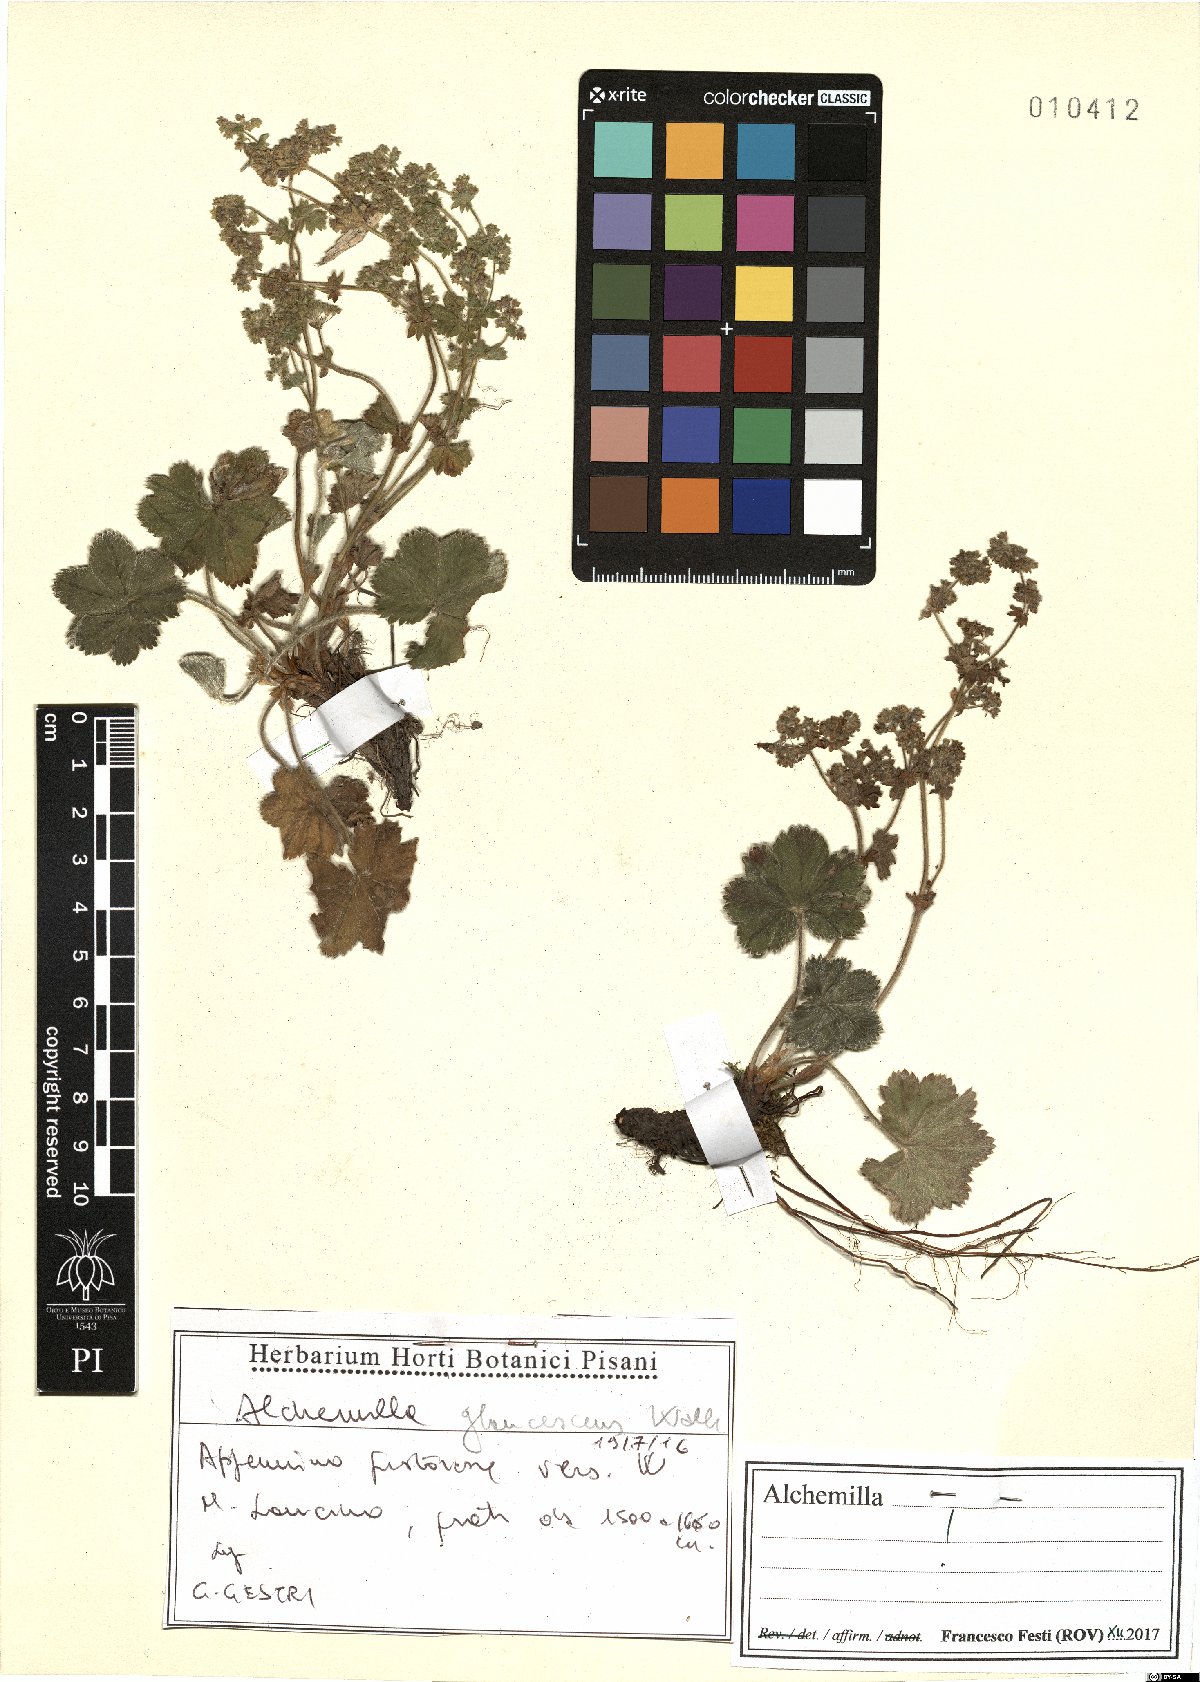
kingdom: Plantae
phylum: Tracheophyta
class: Magnoliopsida
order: Rosales
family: Rosaceae
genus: Alchemilla
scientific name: Alchemilla glaucescens
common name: Silky lady's mantle
